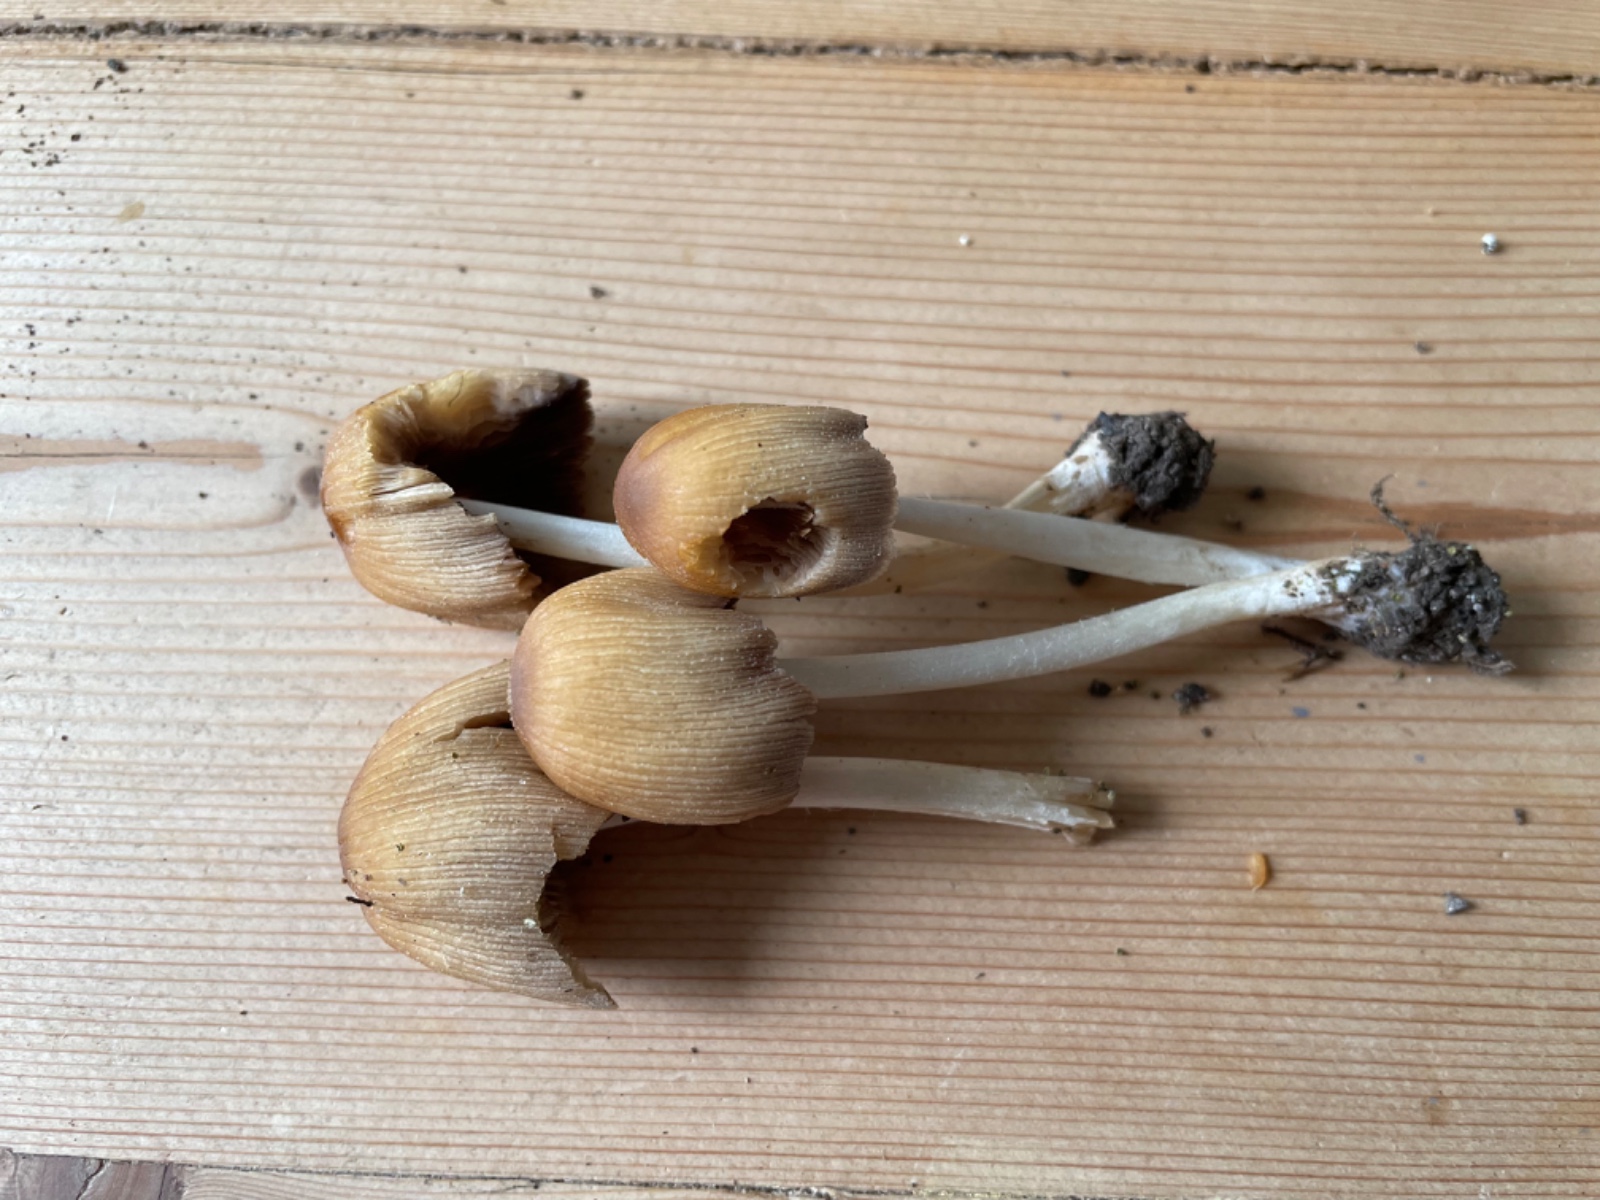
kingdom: Fungi
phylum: Basidiomycota
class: Agaricomycetes
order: Agaricales
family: Psathyrellaceae
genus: Coprinellus
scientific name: Coprinellus micaceus
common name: glimmer-blækhat
